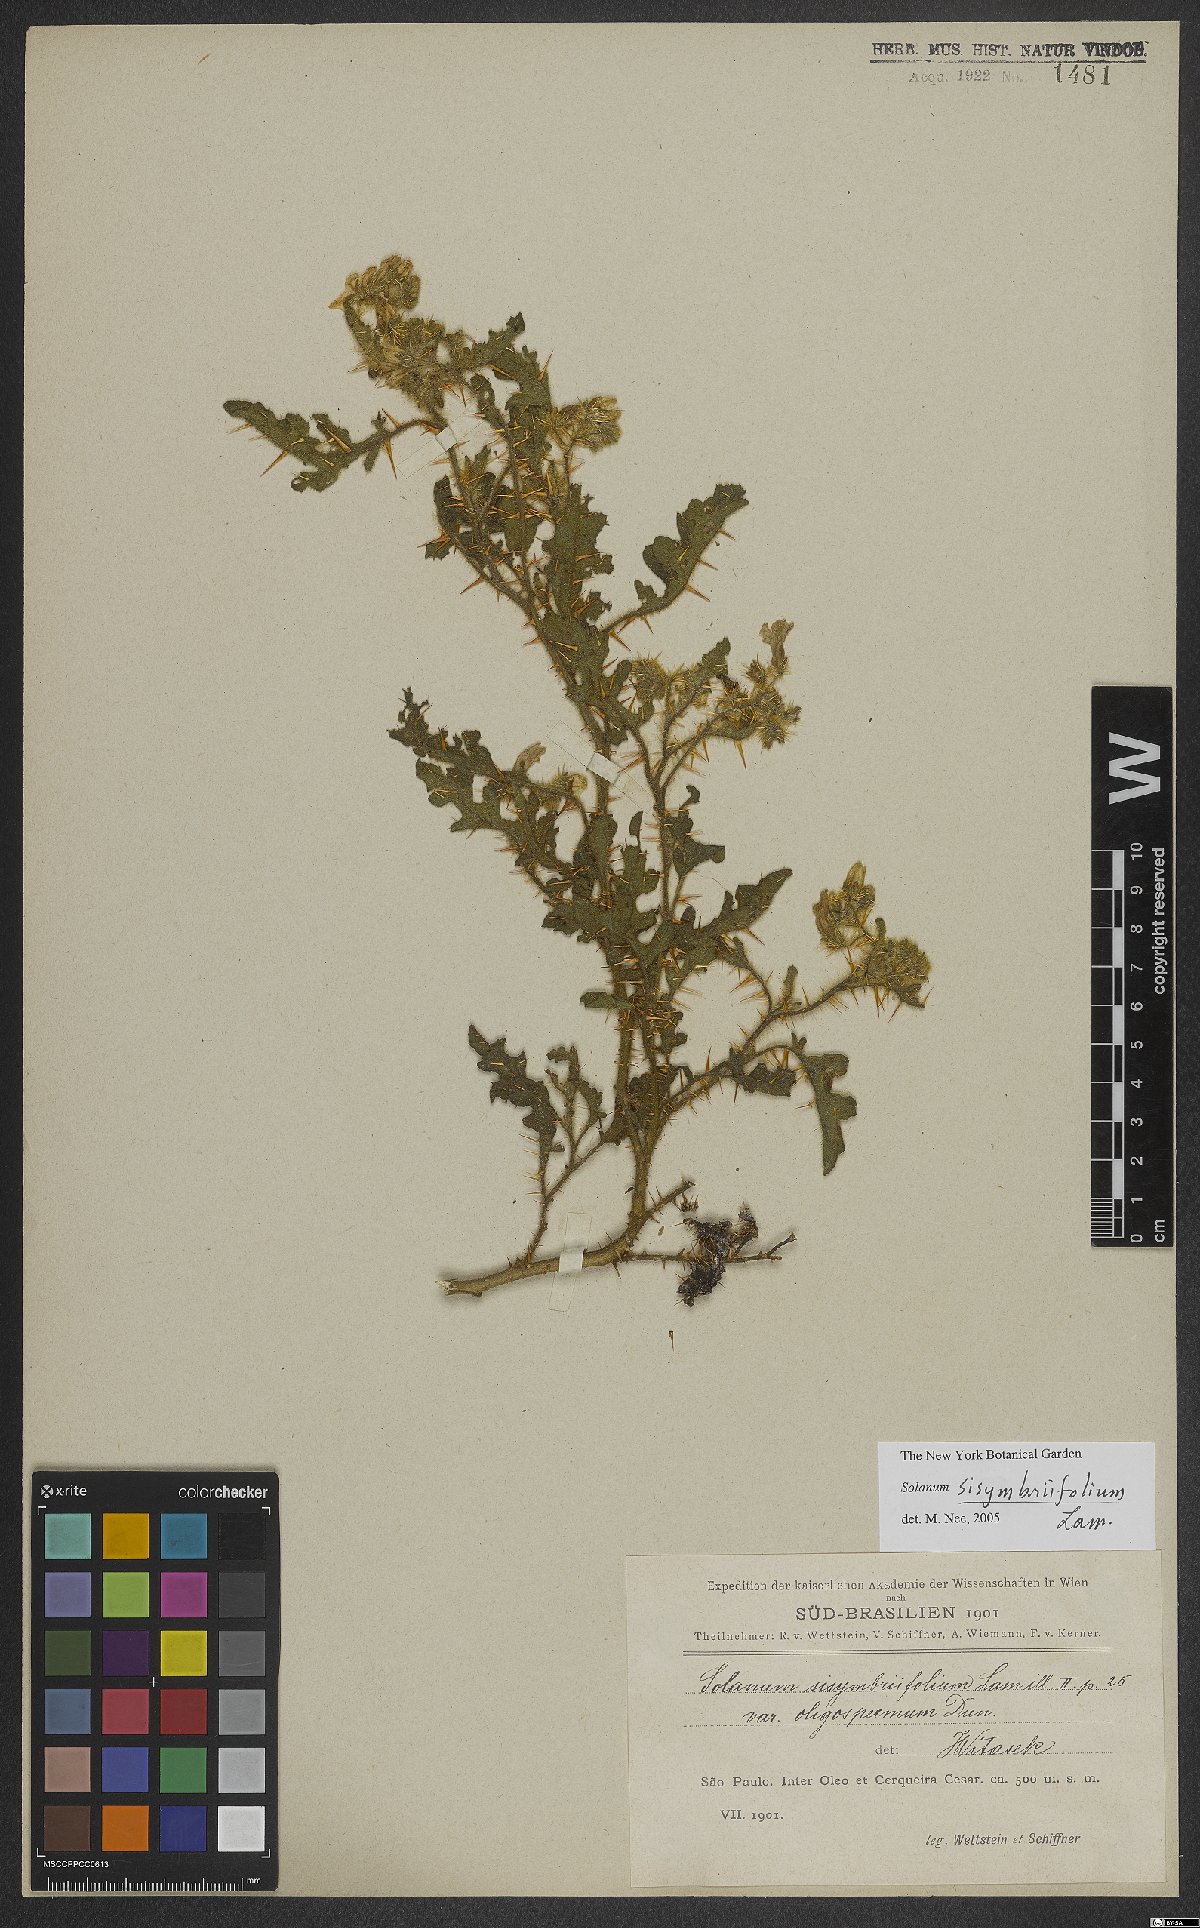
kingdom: Plantae
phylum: Tracheophyta
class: Magnoliopsida
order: Solanales
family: Solanaceae
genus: Solanum
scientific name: Solanum sisymbriifolium
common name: Red buffalo-bur
